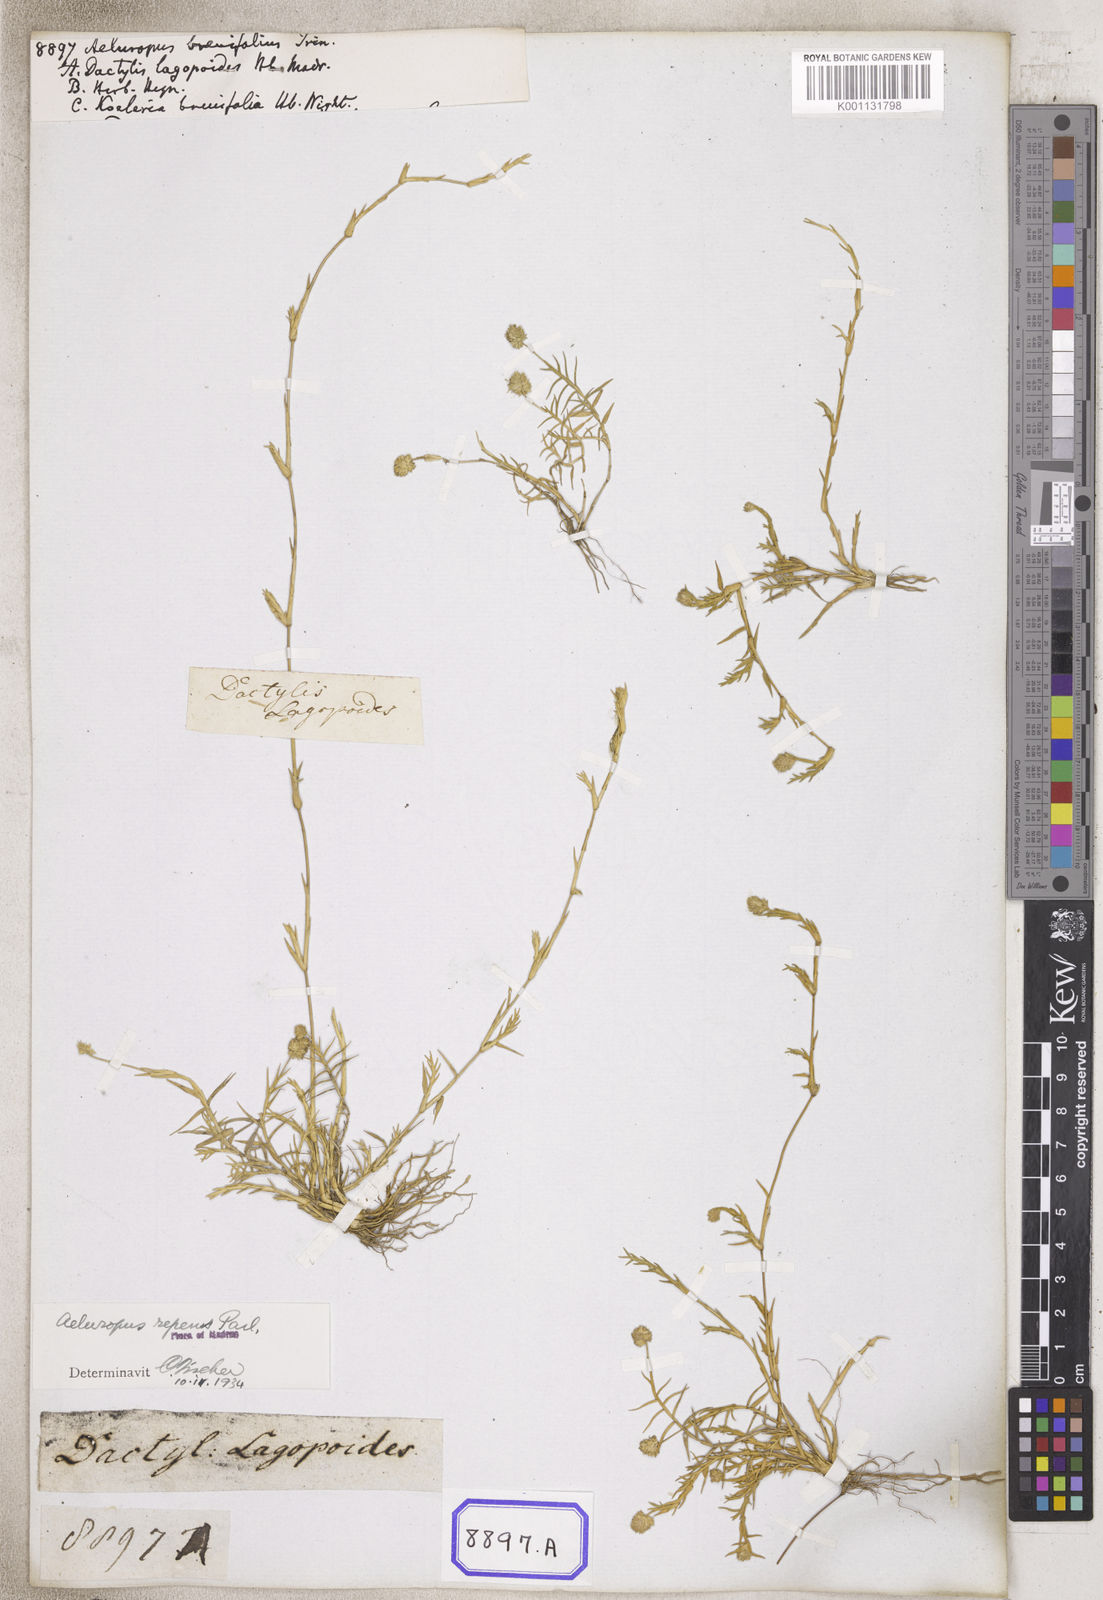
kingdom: Plantae
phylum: Tracheophyta
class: Liliopsida
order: Poales
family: Poaceae
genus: Aeluropus
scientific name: Aeluropus
